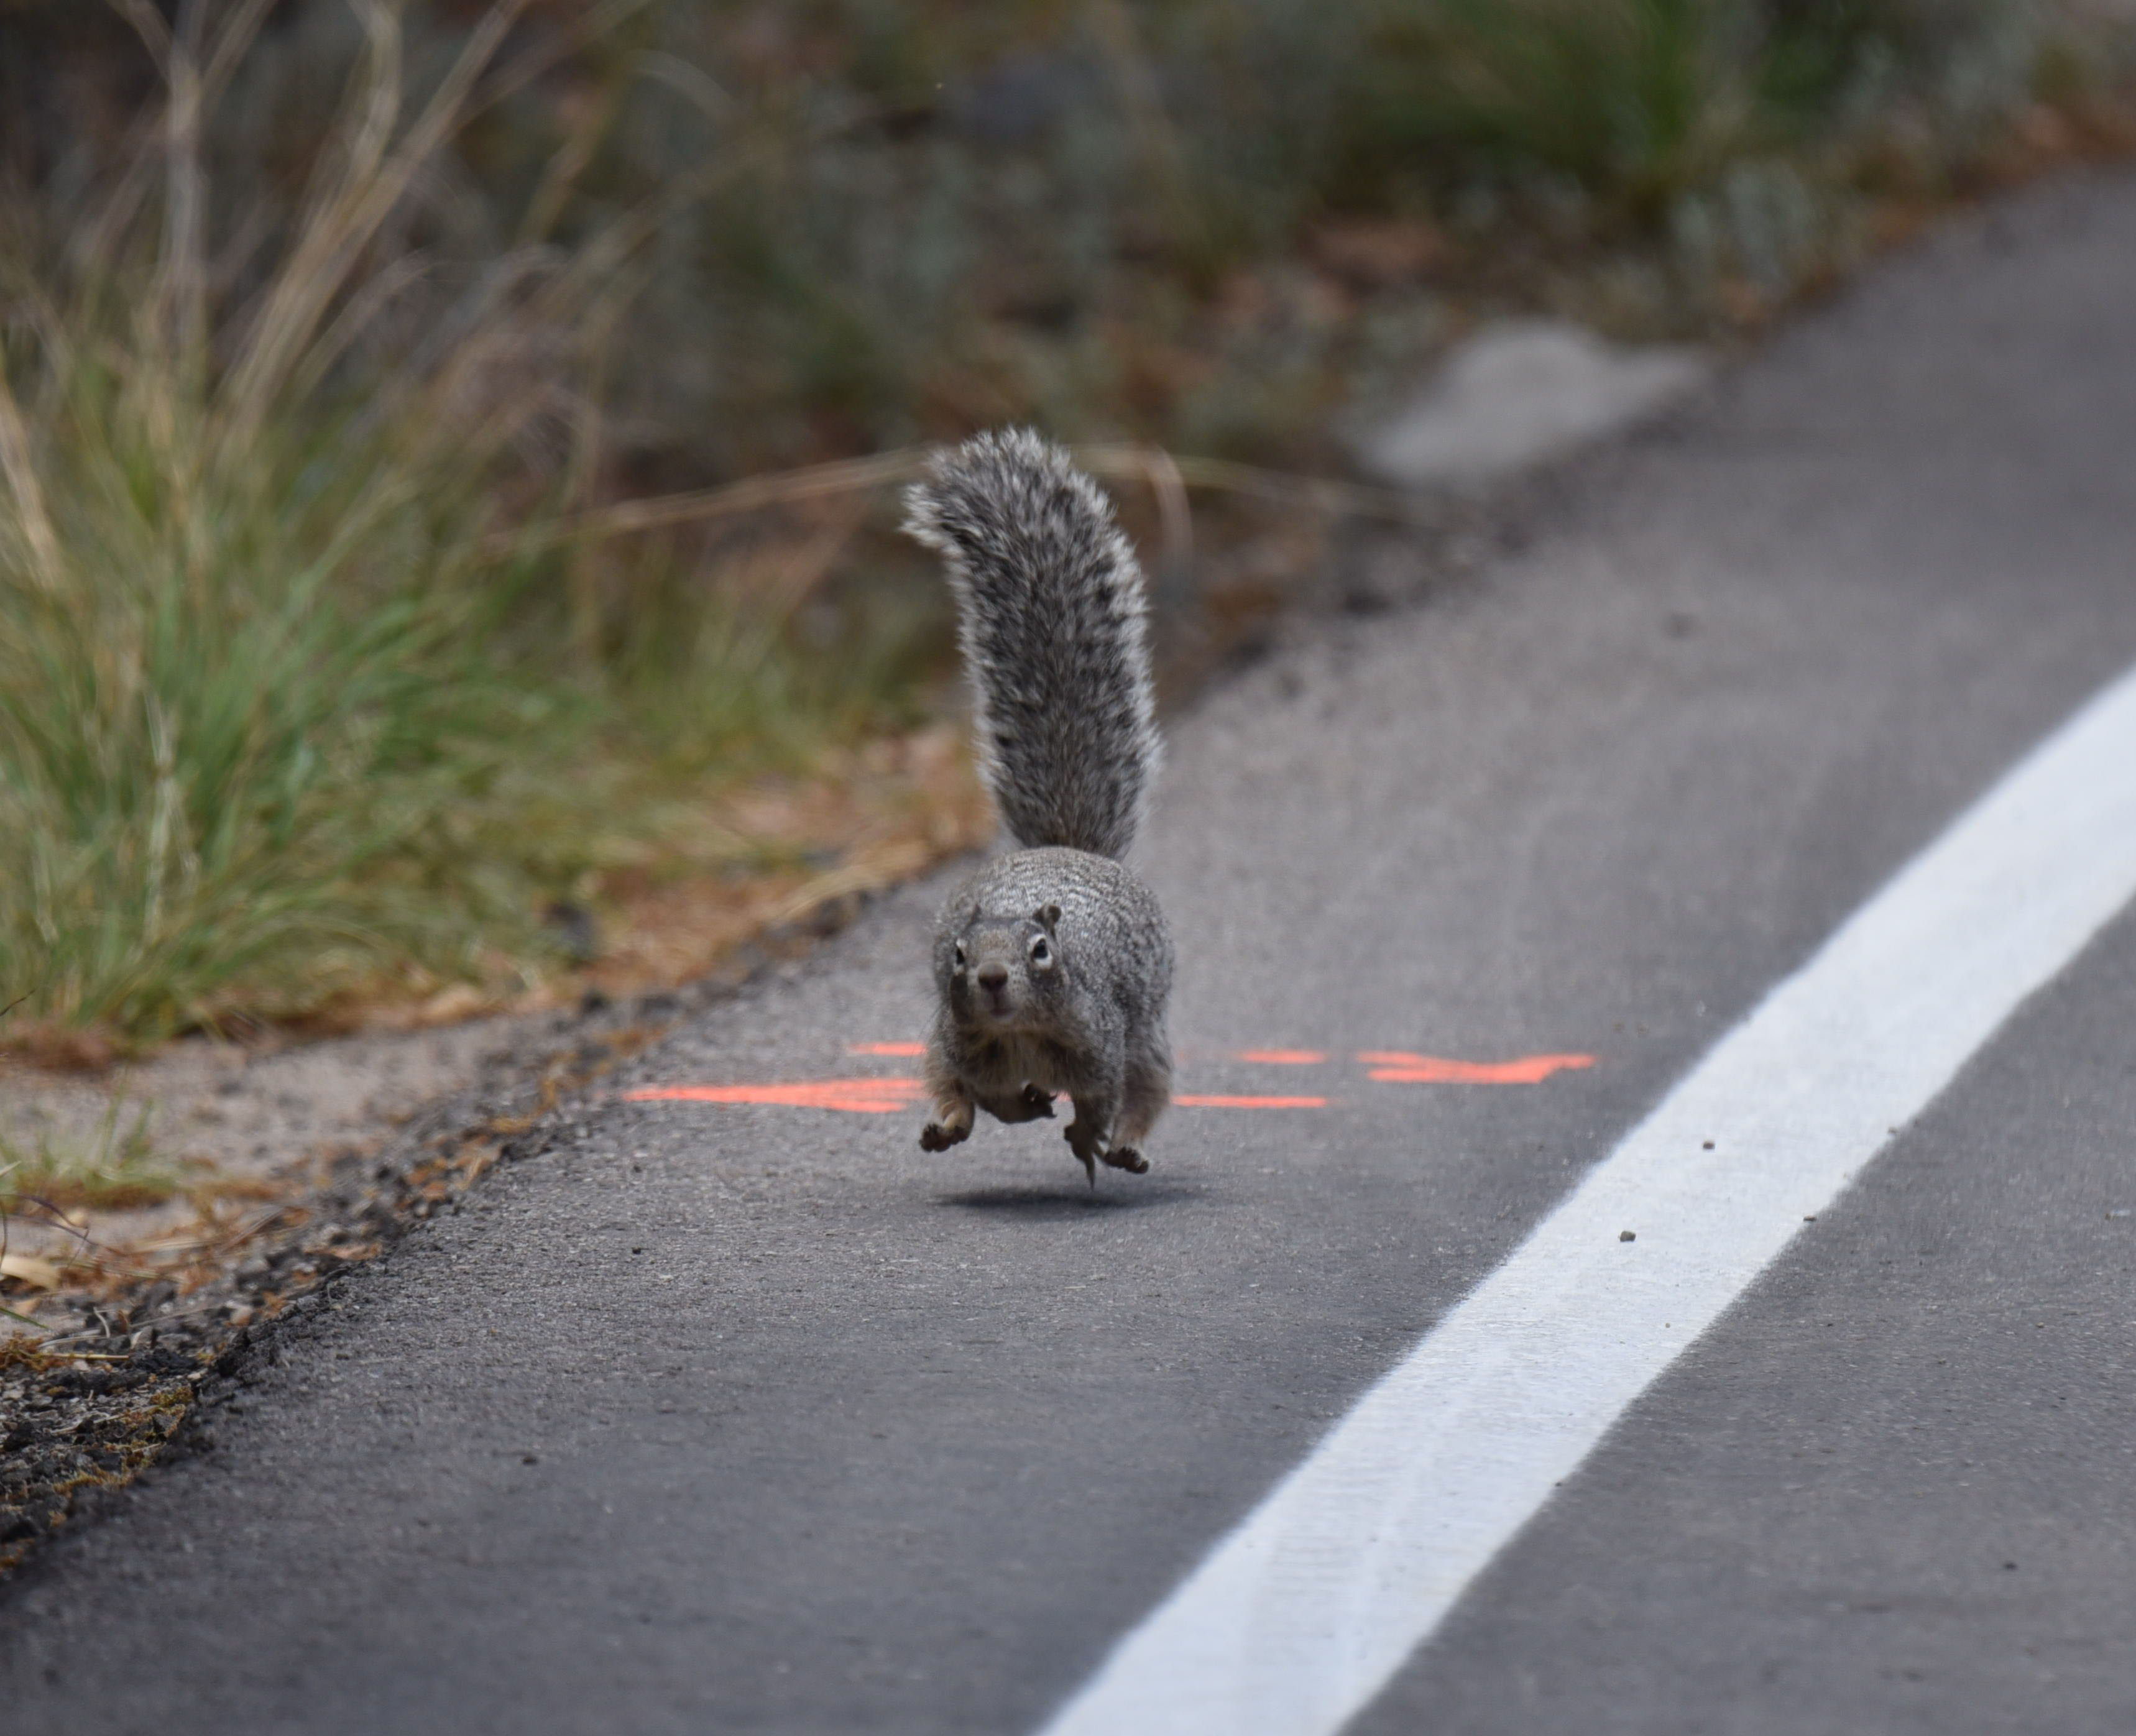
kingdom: Animalia
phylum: Chordata
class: Mammalia
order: Rodentia
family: Sciuridae
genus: Otospermophilus
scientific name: Otospermophilus variegatus
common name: Rock squirrel
